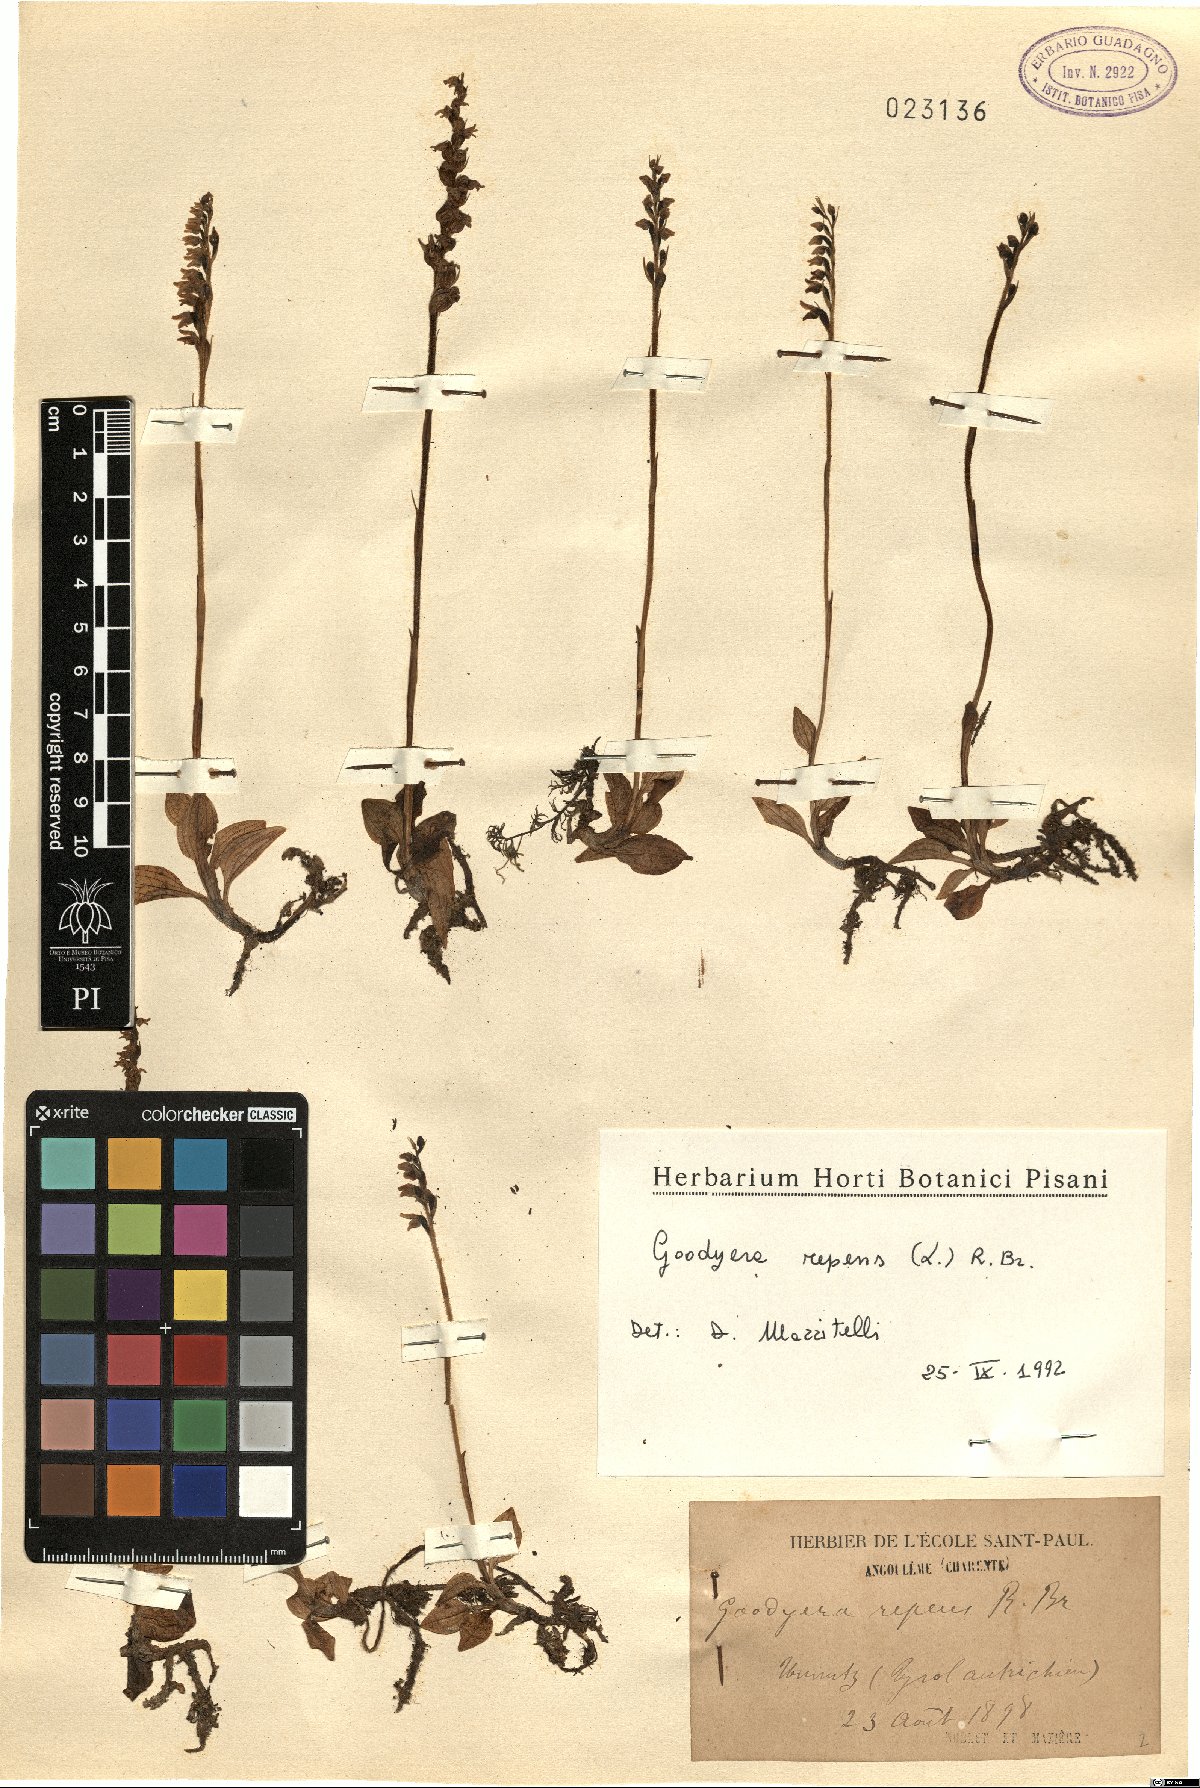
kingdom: Plantae
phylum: Tracheophyta
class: Liliopsida
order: Asparagales
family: Orchidaceae
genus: Goodyera
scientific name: Goodyera repens
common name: Creeping lady's-tresses
